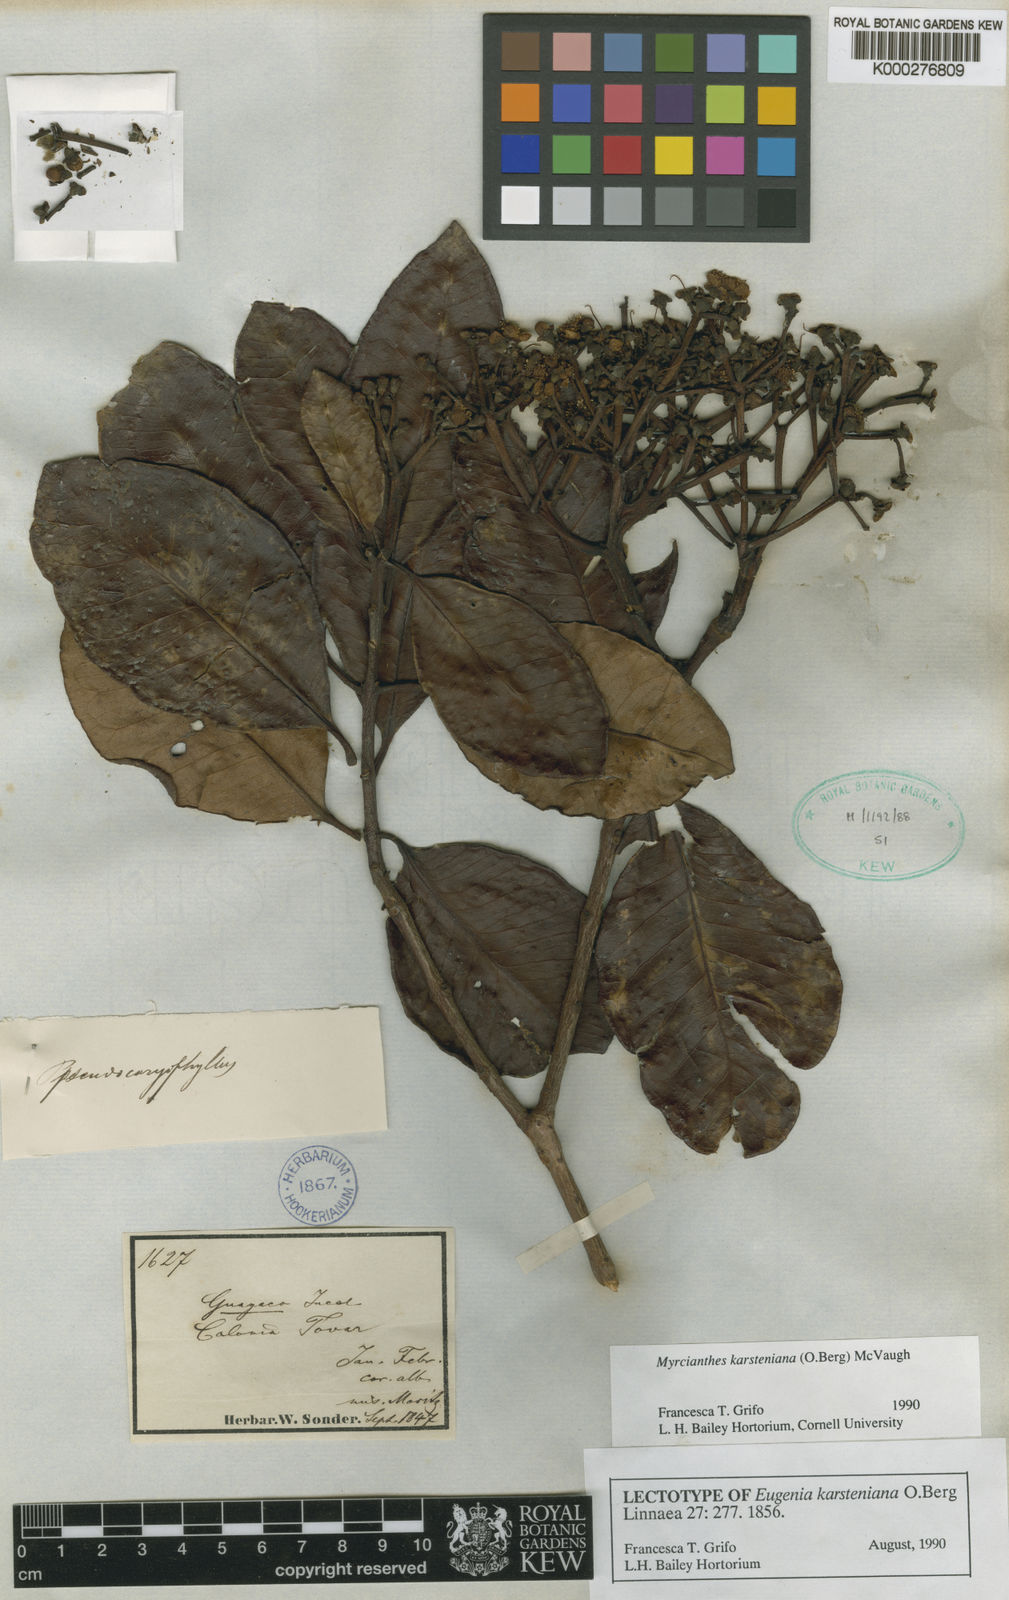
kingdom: Plantae
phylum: Tracheophyta
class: Magnoliopsida
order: Myrtales
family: Myrtaceae
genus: Myrcianthes
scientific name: Myrcianthes karsteniana
